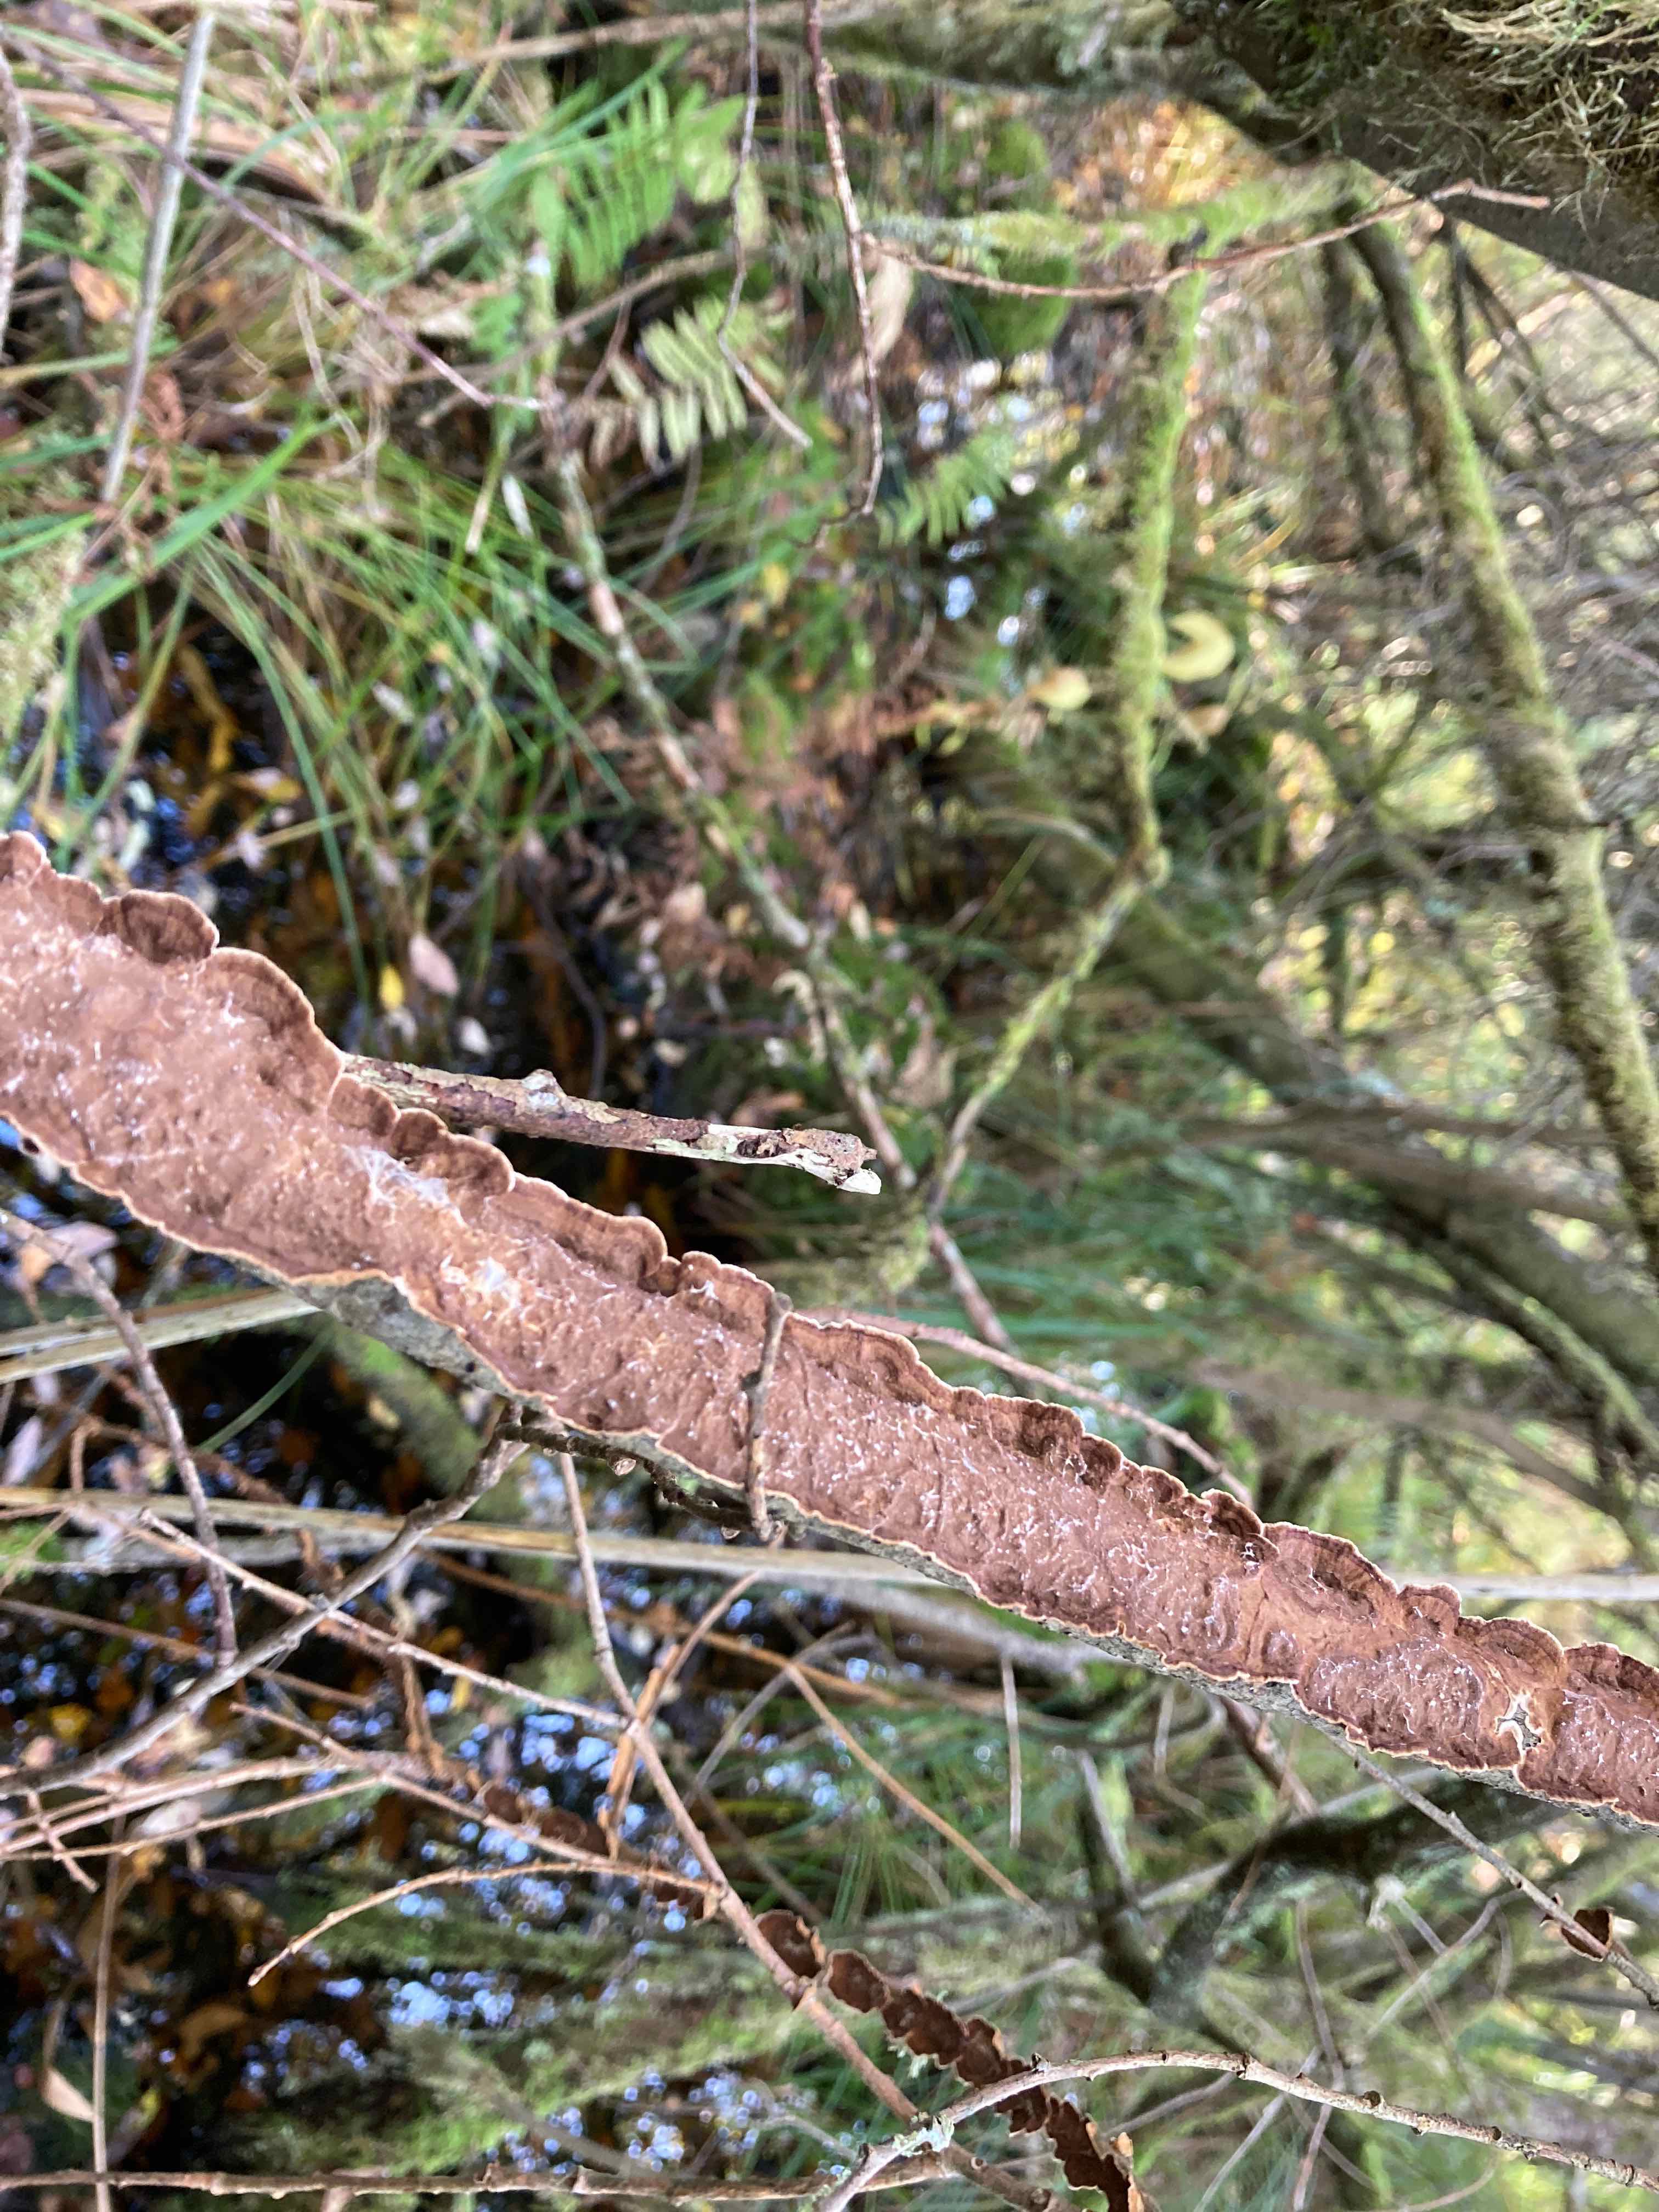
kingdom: Fungi
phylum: Basidiomycota
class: Agaricomycetes
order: Hymenochaetales
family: Hymenochaetaceae
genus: Hydnoporia
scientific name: Hydnoporia tabacina
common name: tobaksbrun ruslædersvamp
